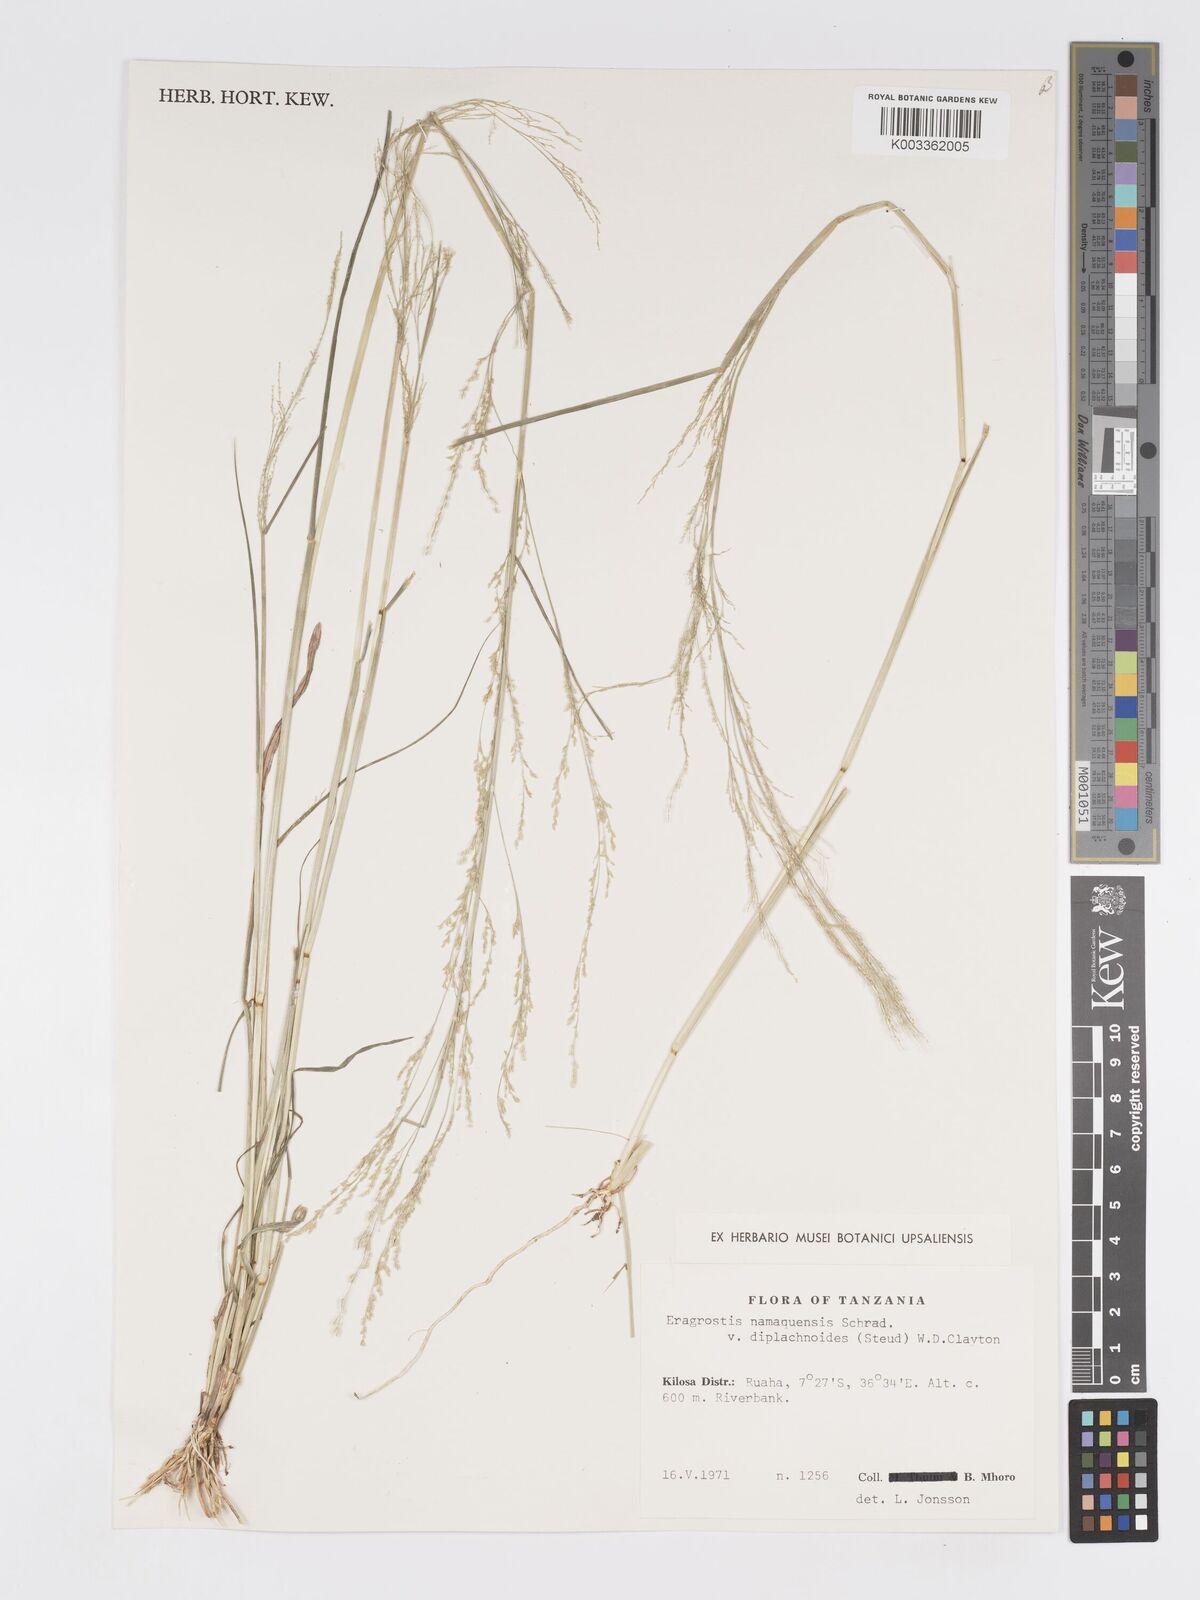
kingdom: Plantae
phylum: Tracheophyta
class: Liliopsida
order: Poales
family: Poaceae
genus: Eragrostis
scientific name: Eragrostis japonica
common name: Pond lovegrass
